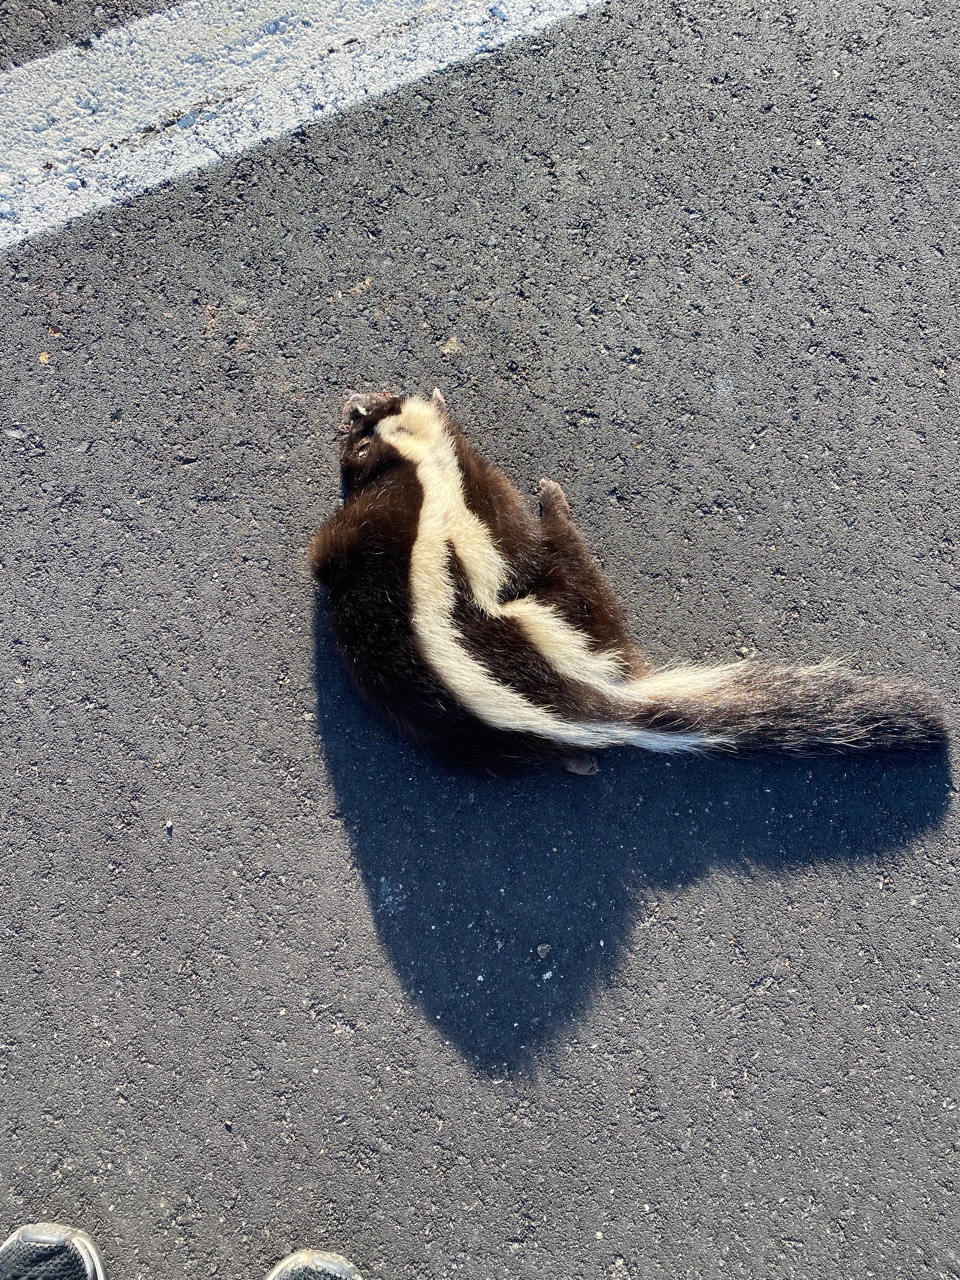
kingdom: Animalia
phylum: Chordata
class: Mammalia
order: Carnivora
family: Mephitidae
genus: Mephitis
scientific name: Mephitis mephitis
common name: Striped skunk
